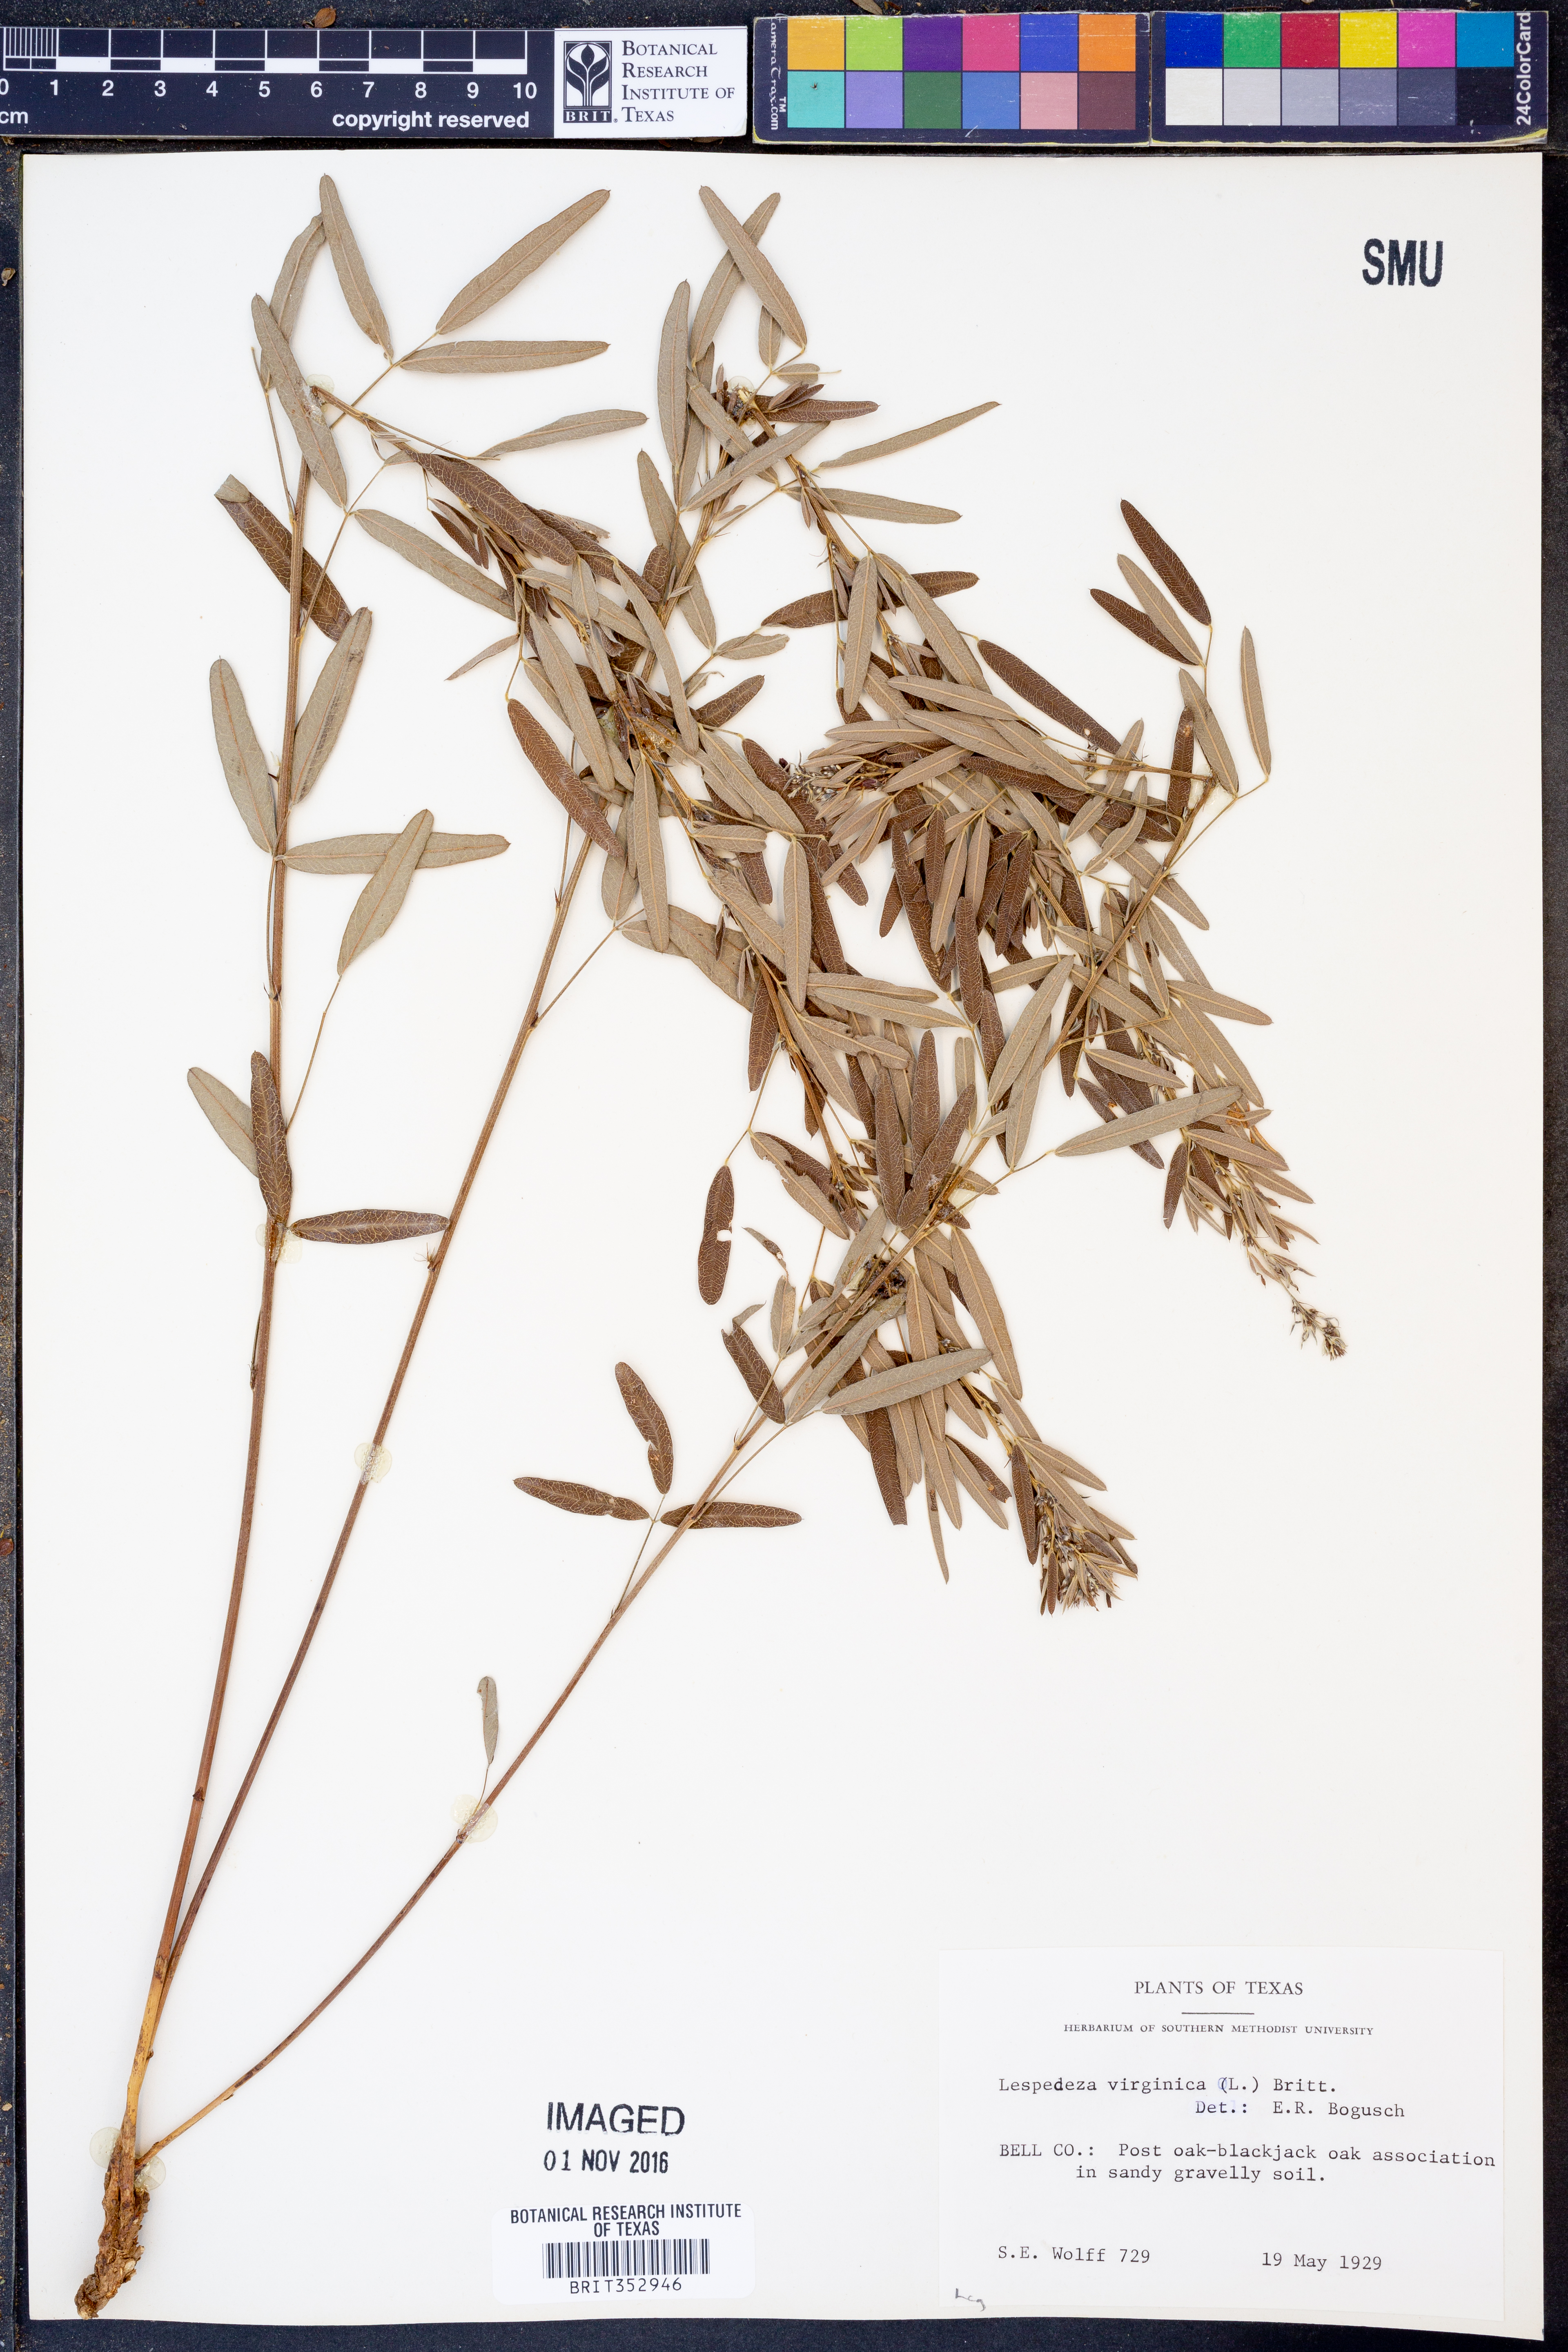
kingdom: Plantae
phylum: Tracheophyta
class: Magnoliopsida
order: Fabales
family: Fabaceae
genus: Lespedeza
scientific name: Lespedeza virginica
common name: Slender bush-clover
